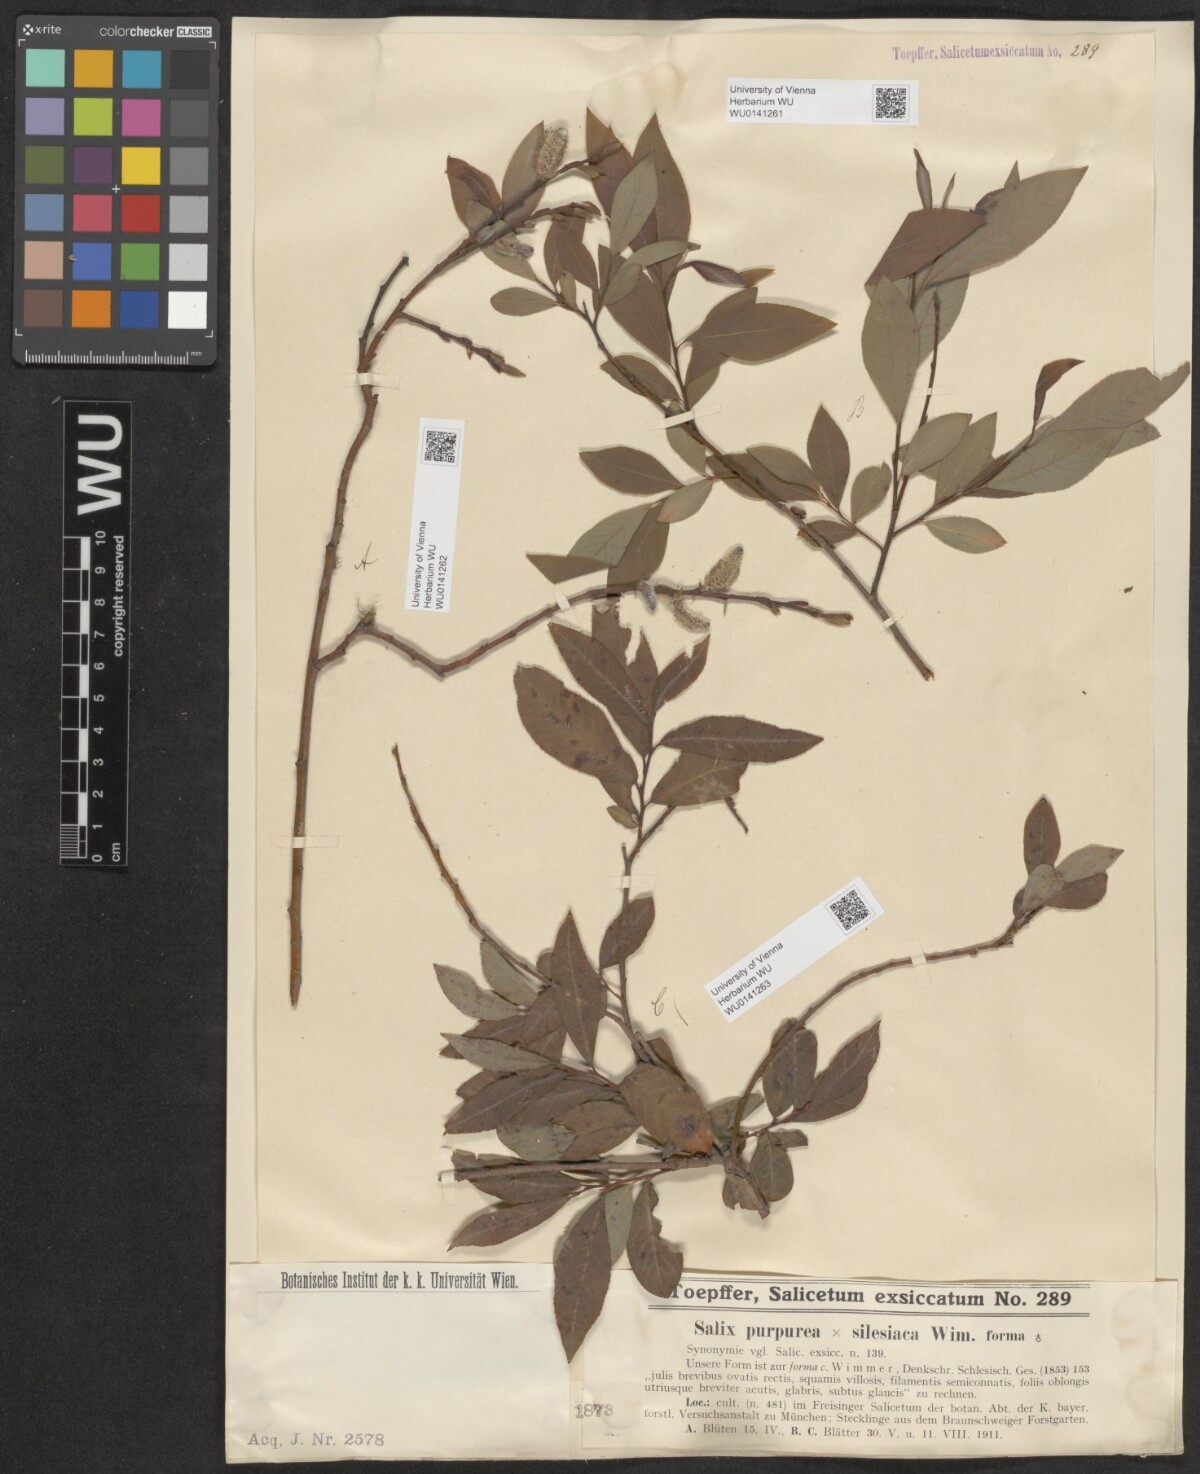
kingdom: Plantae
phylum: Tracheophyta
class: Magnoliopsida
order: Malpighiales
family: Salicaceae
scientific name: Salicaceae
